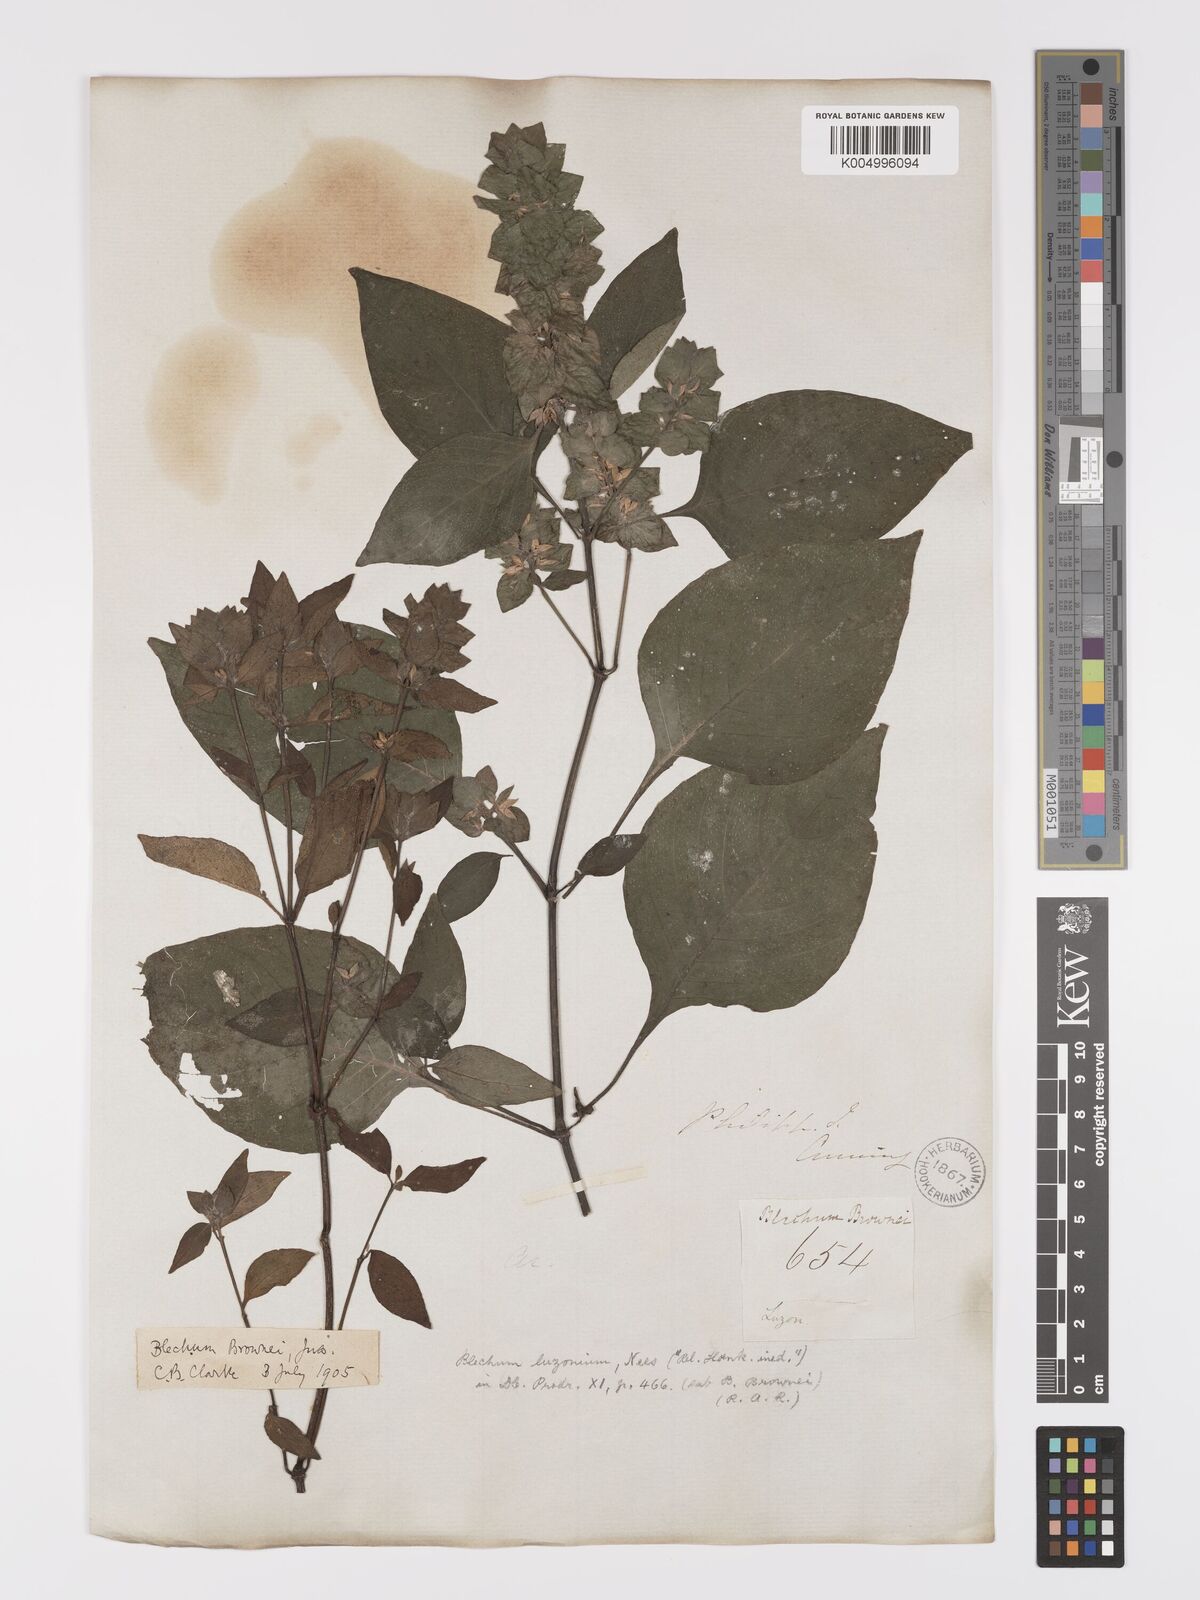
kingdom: Plantae
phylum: Tracheophyta
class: Magnoliopsida
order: Lamiales
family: Acanthaceae
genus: Ruellia
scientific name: Ruellia blechum
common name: Browne's blechum
